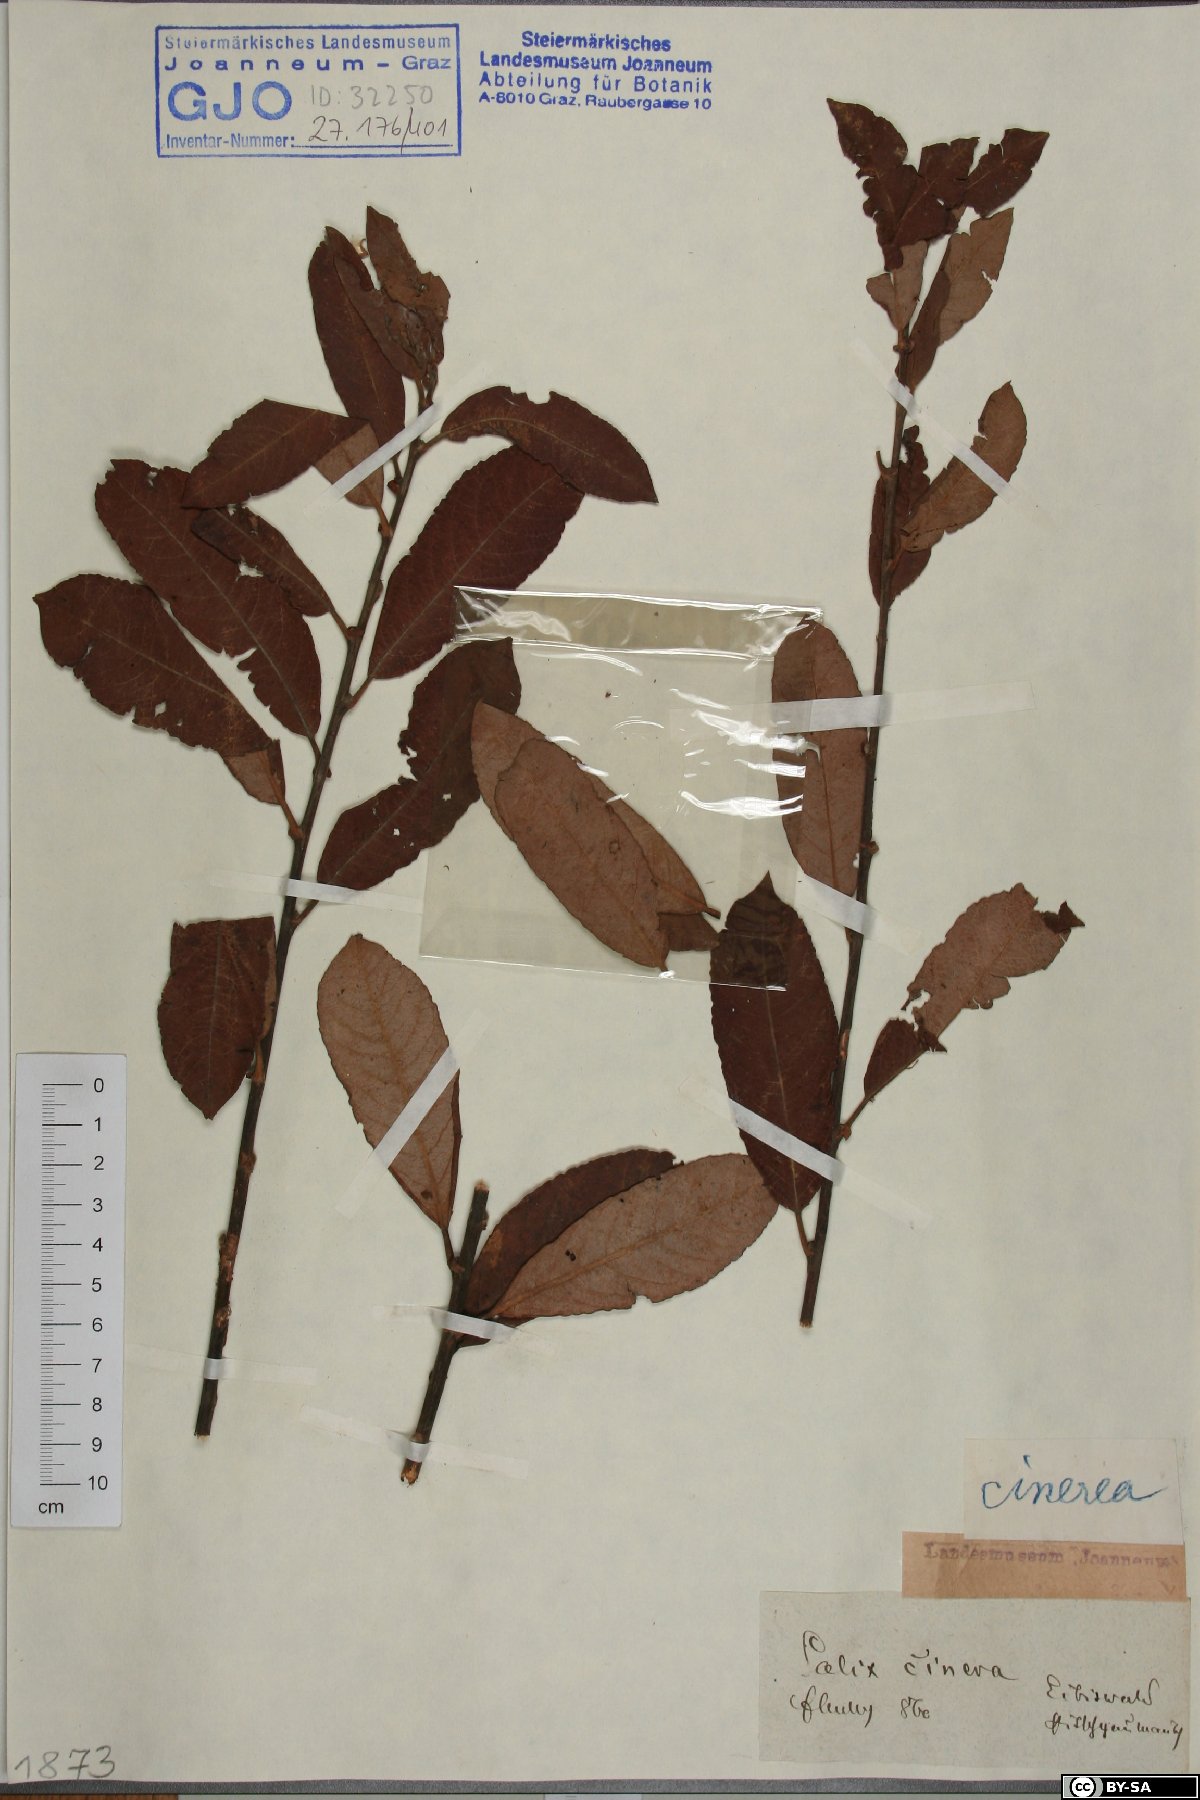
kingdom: Plantae
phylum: Tracheophyta
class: Magnoliopsida
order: Malpighiales
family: Salicaceae
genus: Salix
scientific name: Salix cinerea
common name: Common sallow
